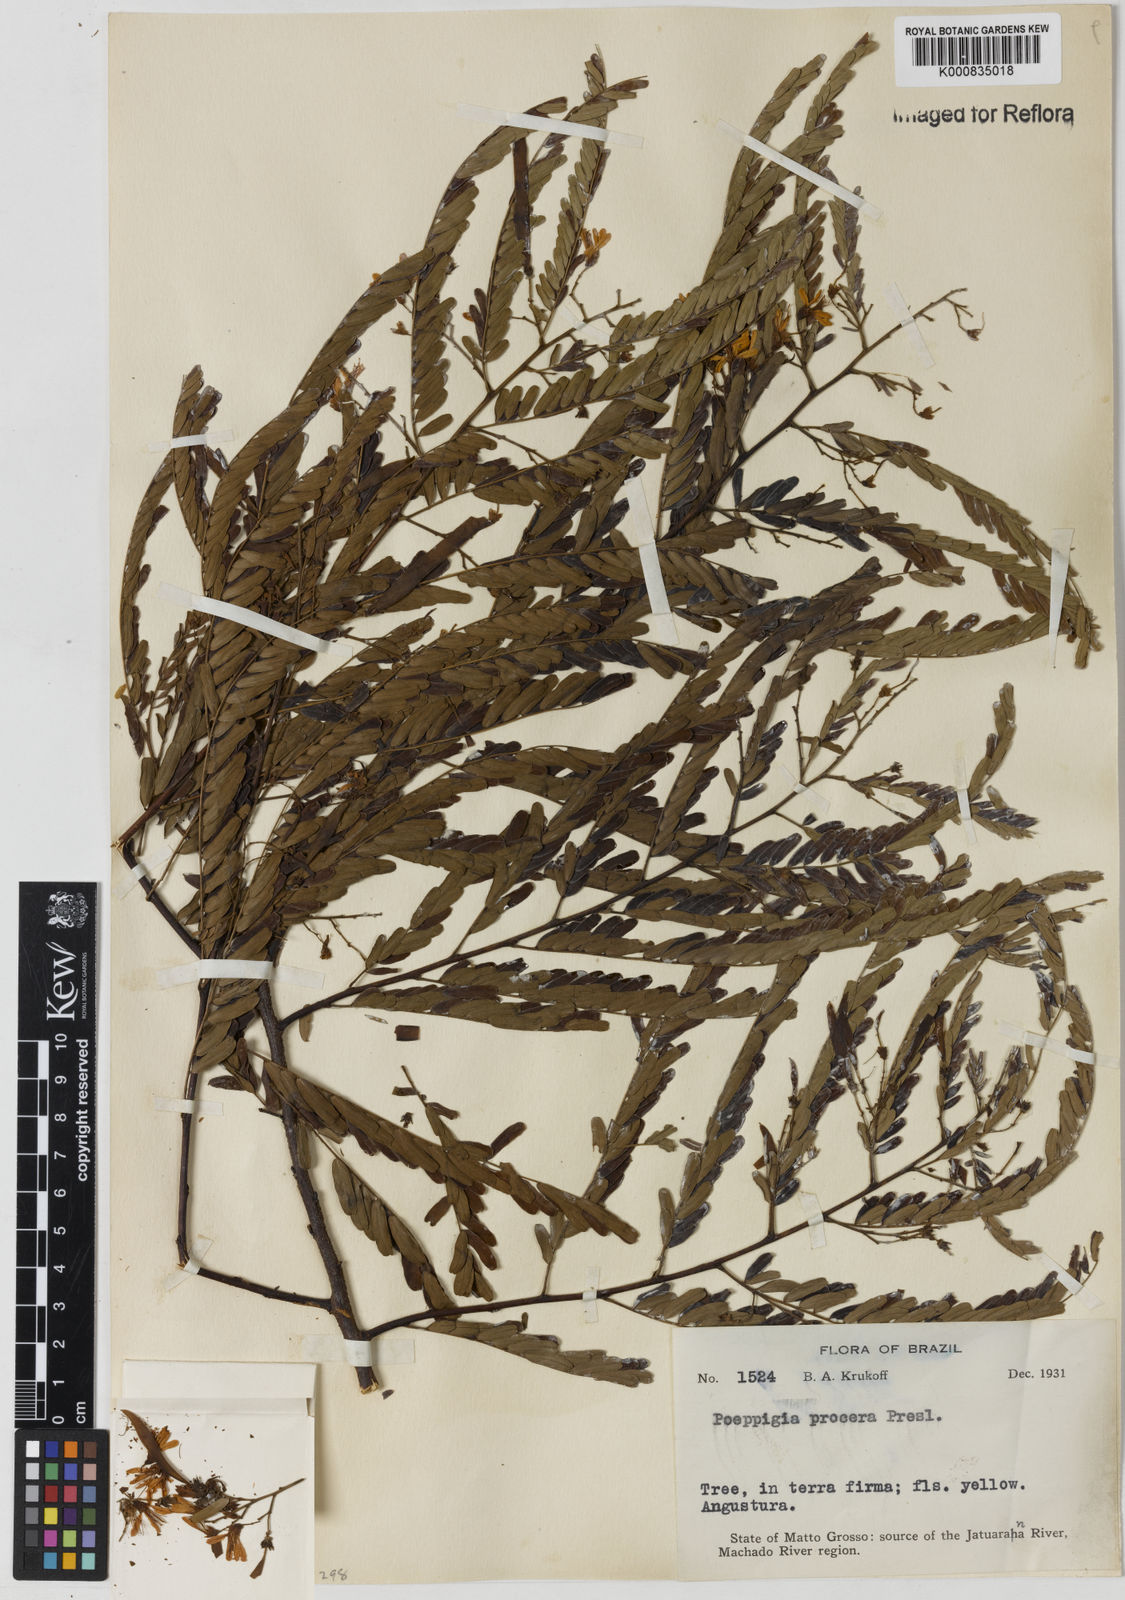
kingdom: Plantae
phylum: Tracheophyta
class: Magnoliopsida
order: Fabales
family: Fabaceae
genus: Poeppigia
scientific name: Poeppigia procera
